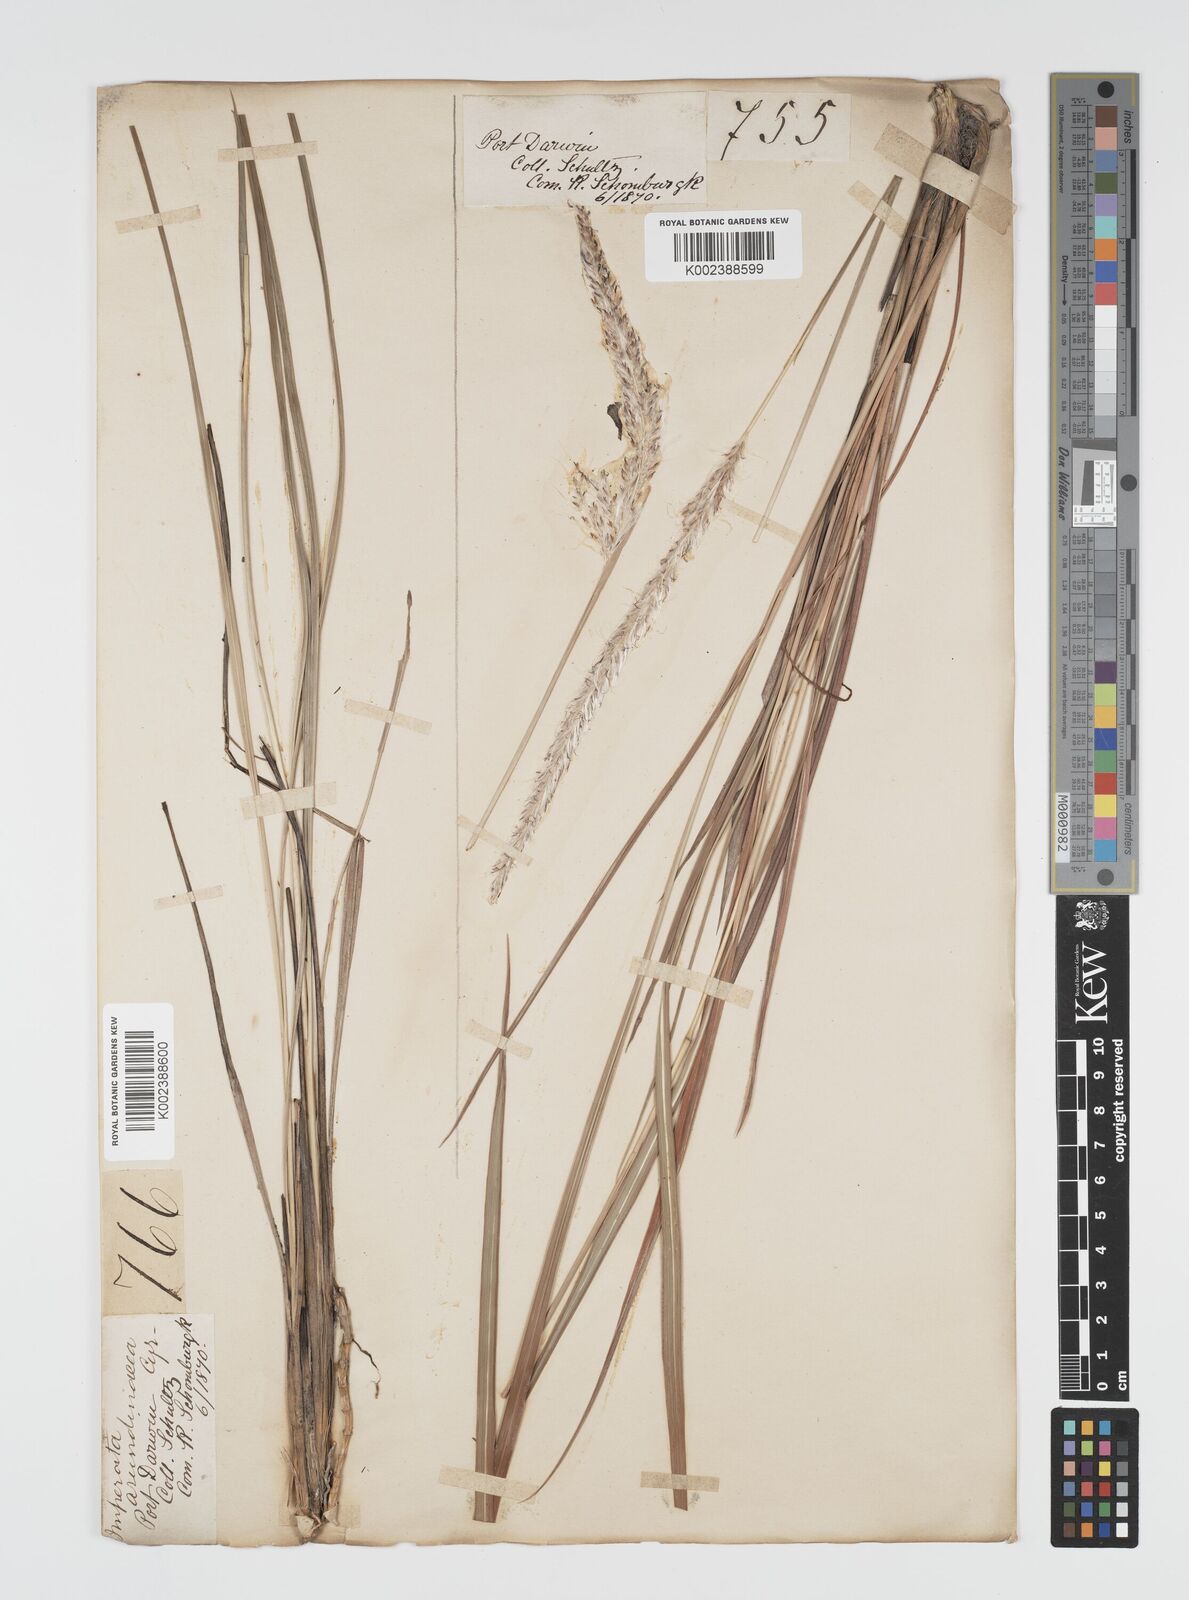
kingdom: Plantae
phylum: Tracheophyta
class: Liliopsida
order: Poales
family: Poaceae
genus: Imperata
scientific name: Imperata cylindrica
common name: Cogongrass
